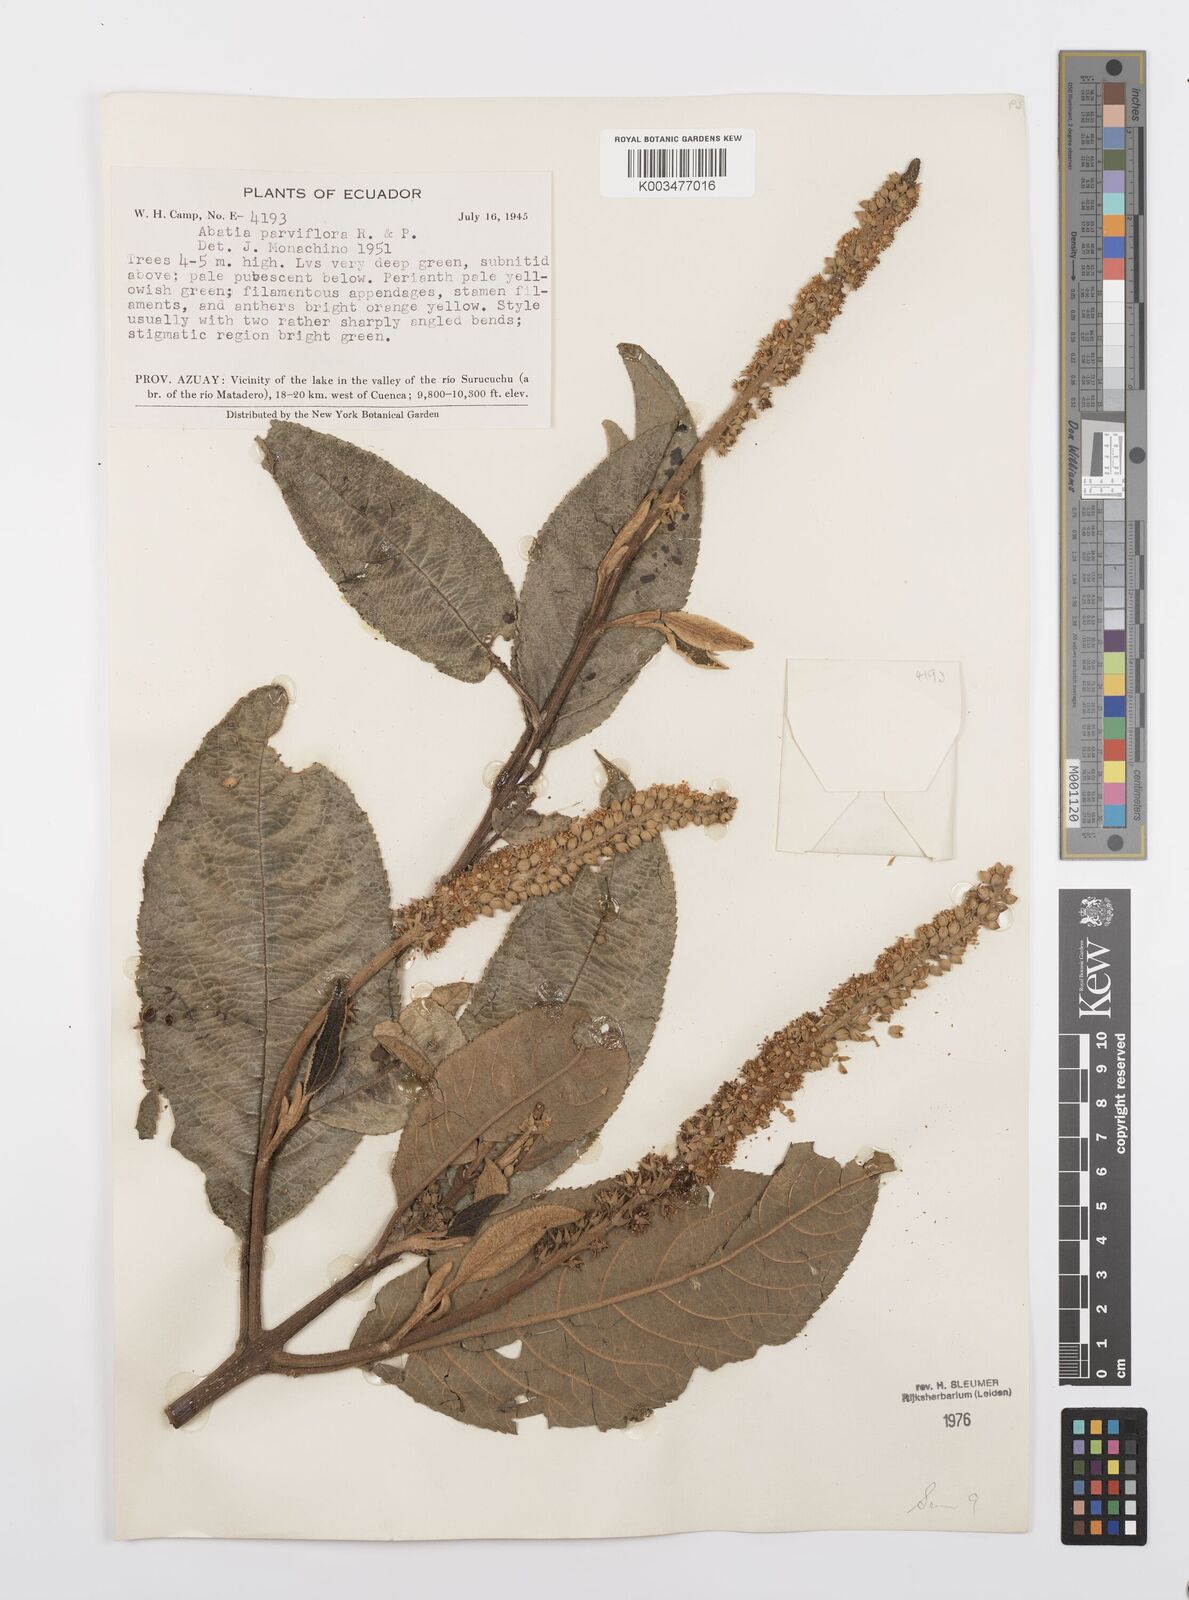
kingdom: Plantae
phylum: Tracheophyta
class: Magnoliopsida
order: Malpighiales
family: Salicaceae
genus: Abatia
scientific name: Abatia parviflora
